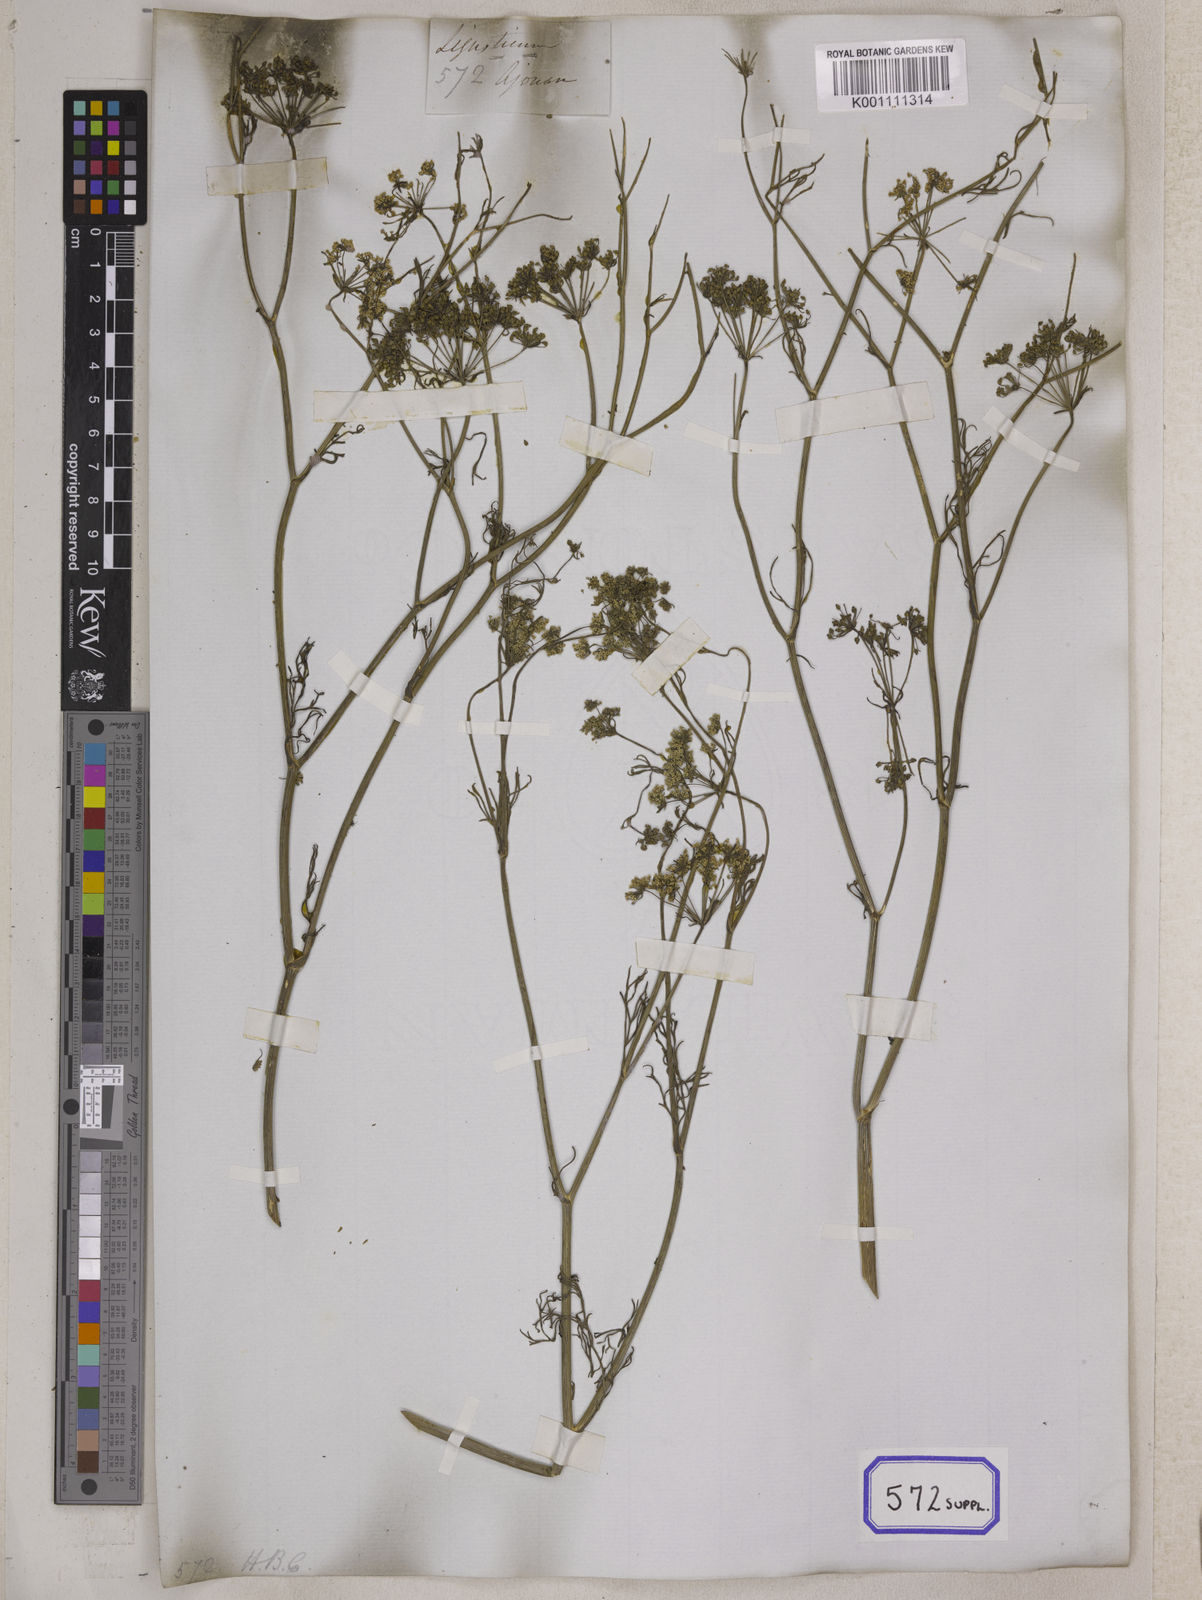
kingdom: Plantae
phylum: Tracheophyta
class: Magnoliopsida
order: Apiales
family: Apiaceae
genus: Trachyspermum
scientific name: Trachyspermum ammi
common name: Ajowan
